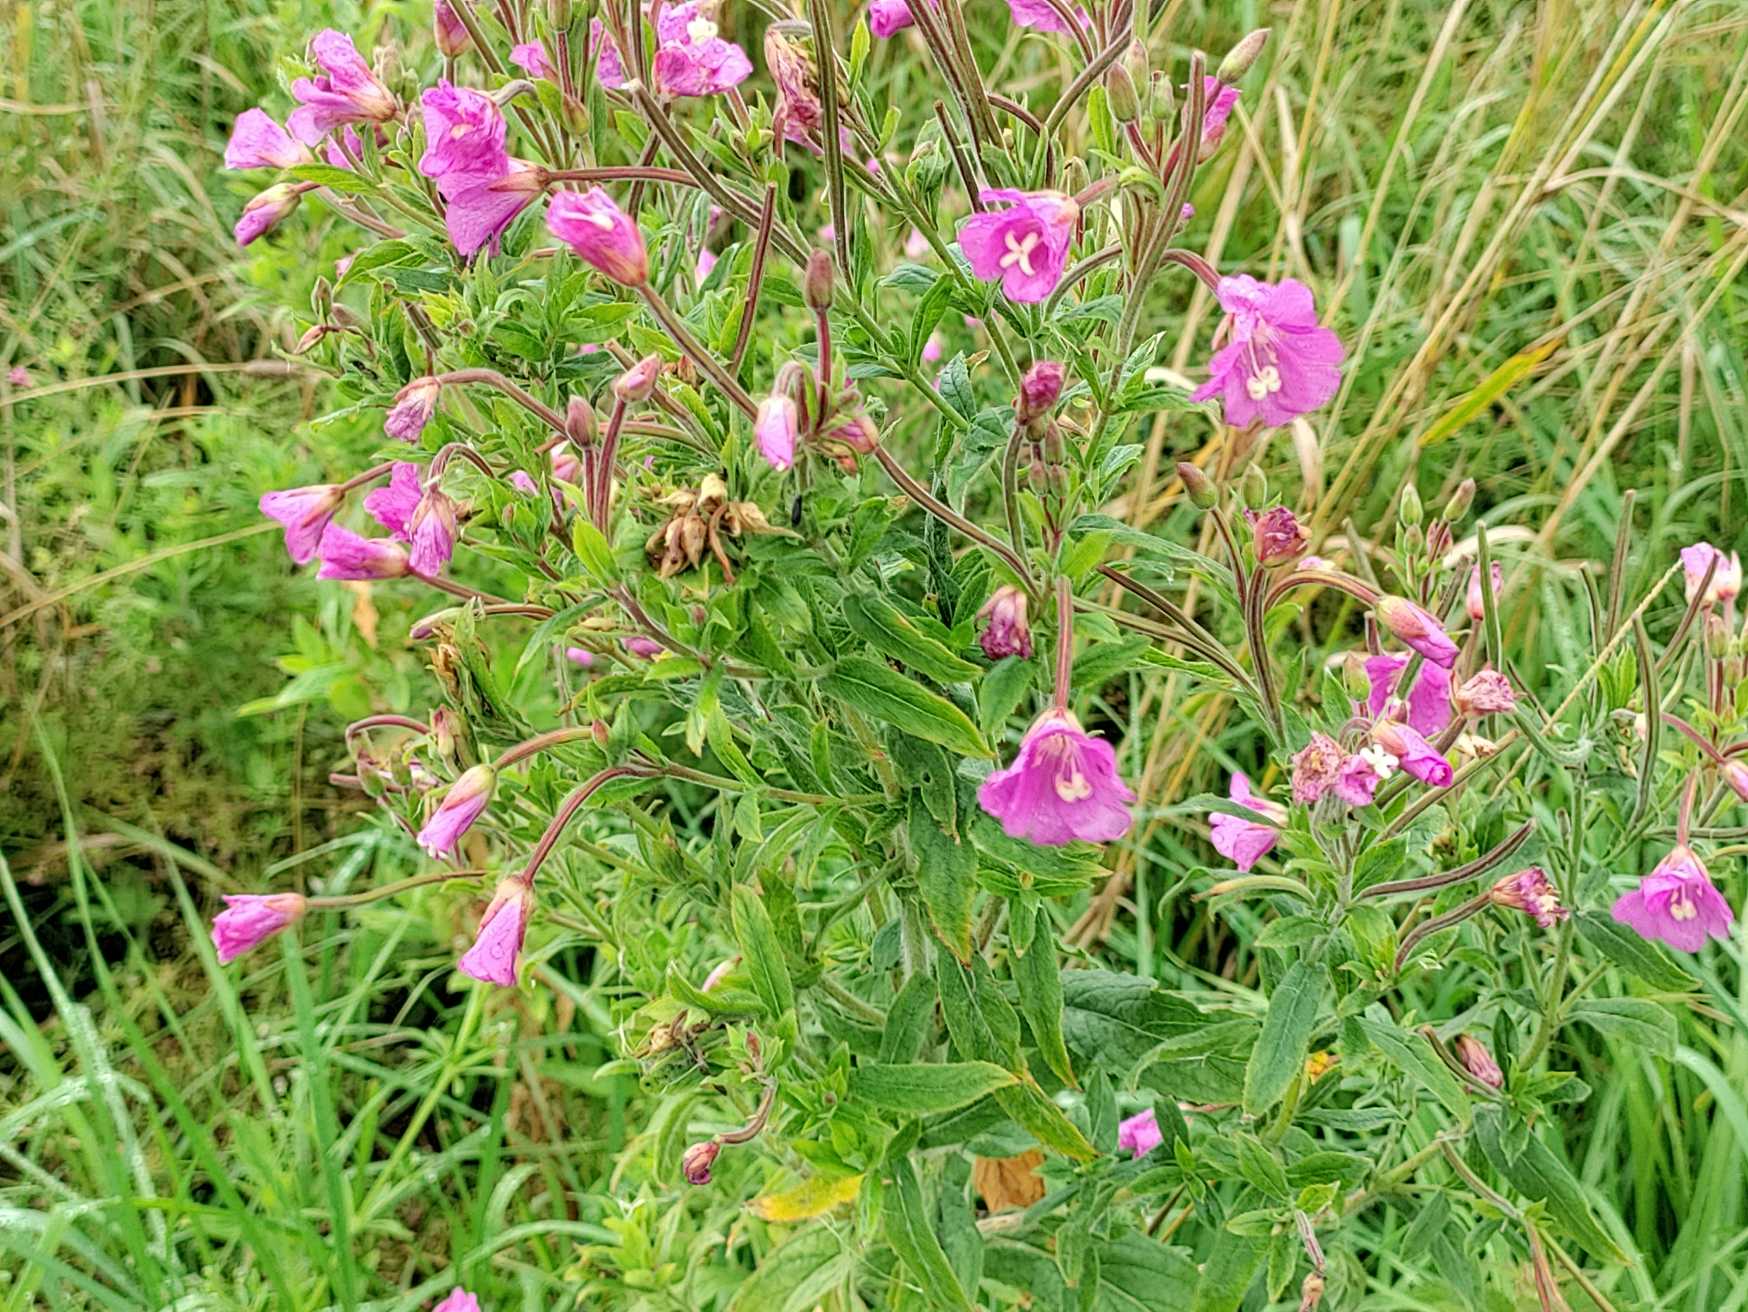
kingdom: Plantae
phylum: Tracheophyta
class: Magnoliopsida
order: Myrtales
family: Onagraceae
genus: Epilobium
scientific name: Epilobium hirsutum
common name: Lådden dueurt
